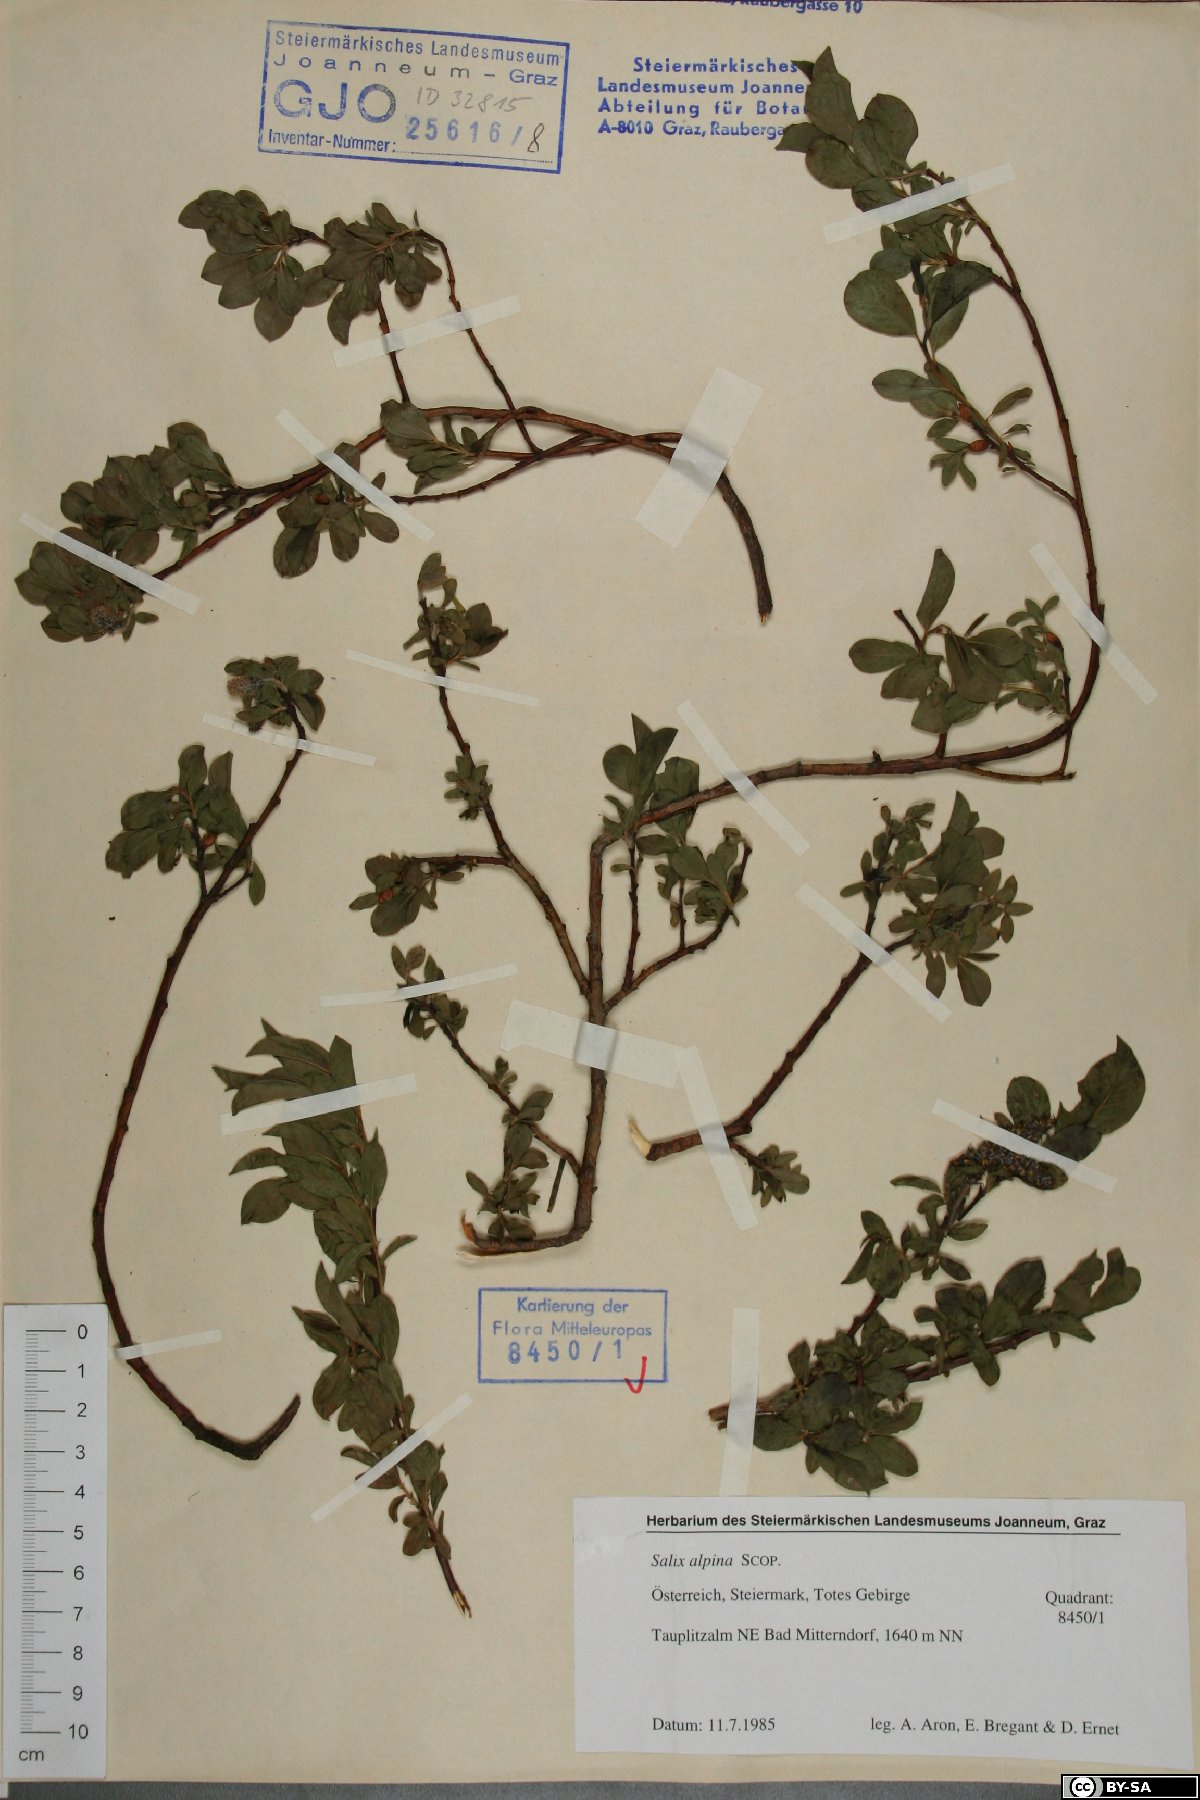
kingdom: Plantae
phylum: Tracheophyta
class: Magnoliopsida
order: Malpighiales
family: Salicaceae
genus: Salix
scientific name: Salix alpina
